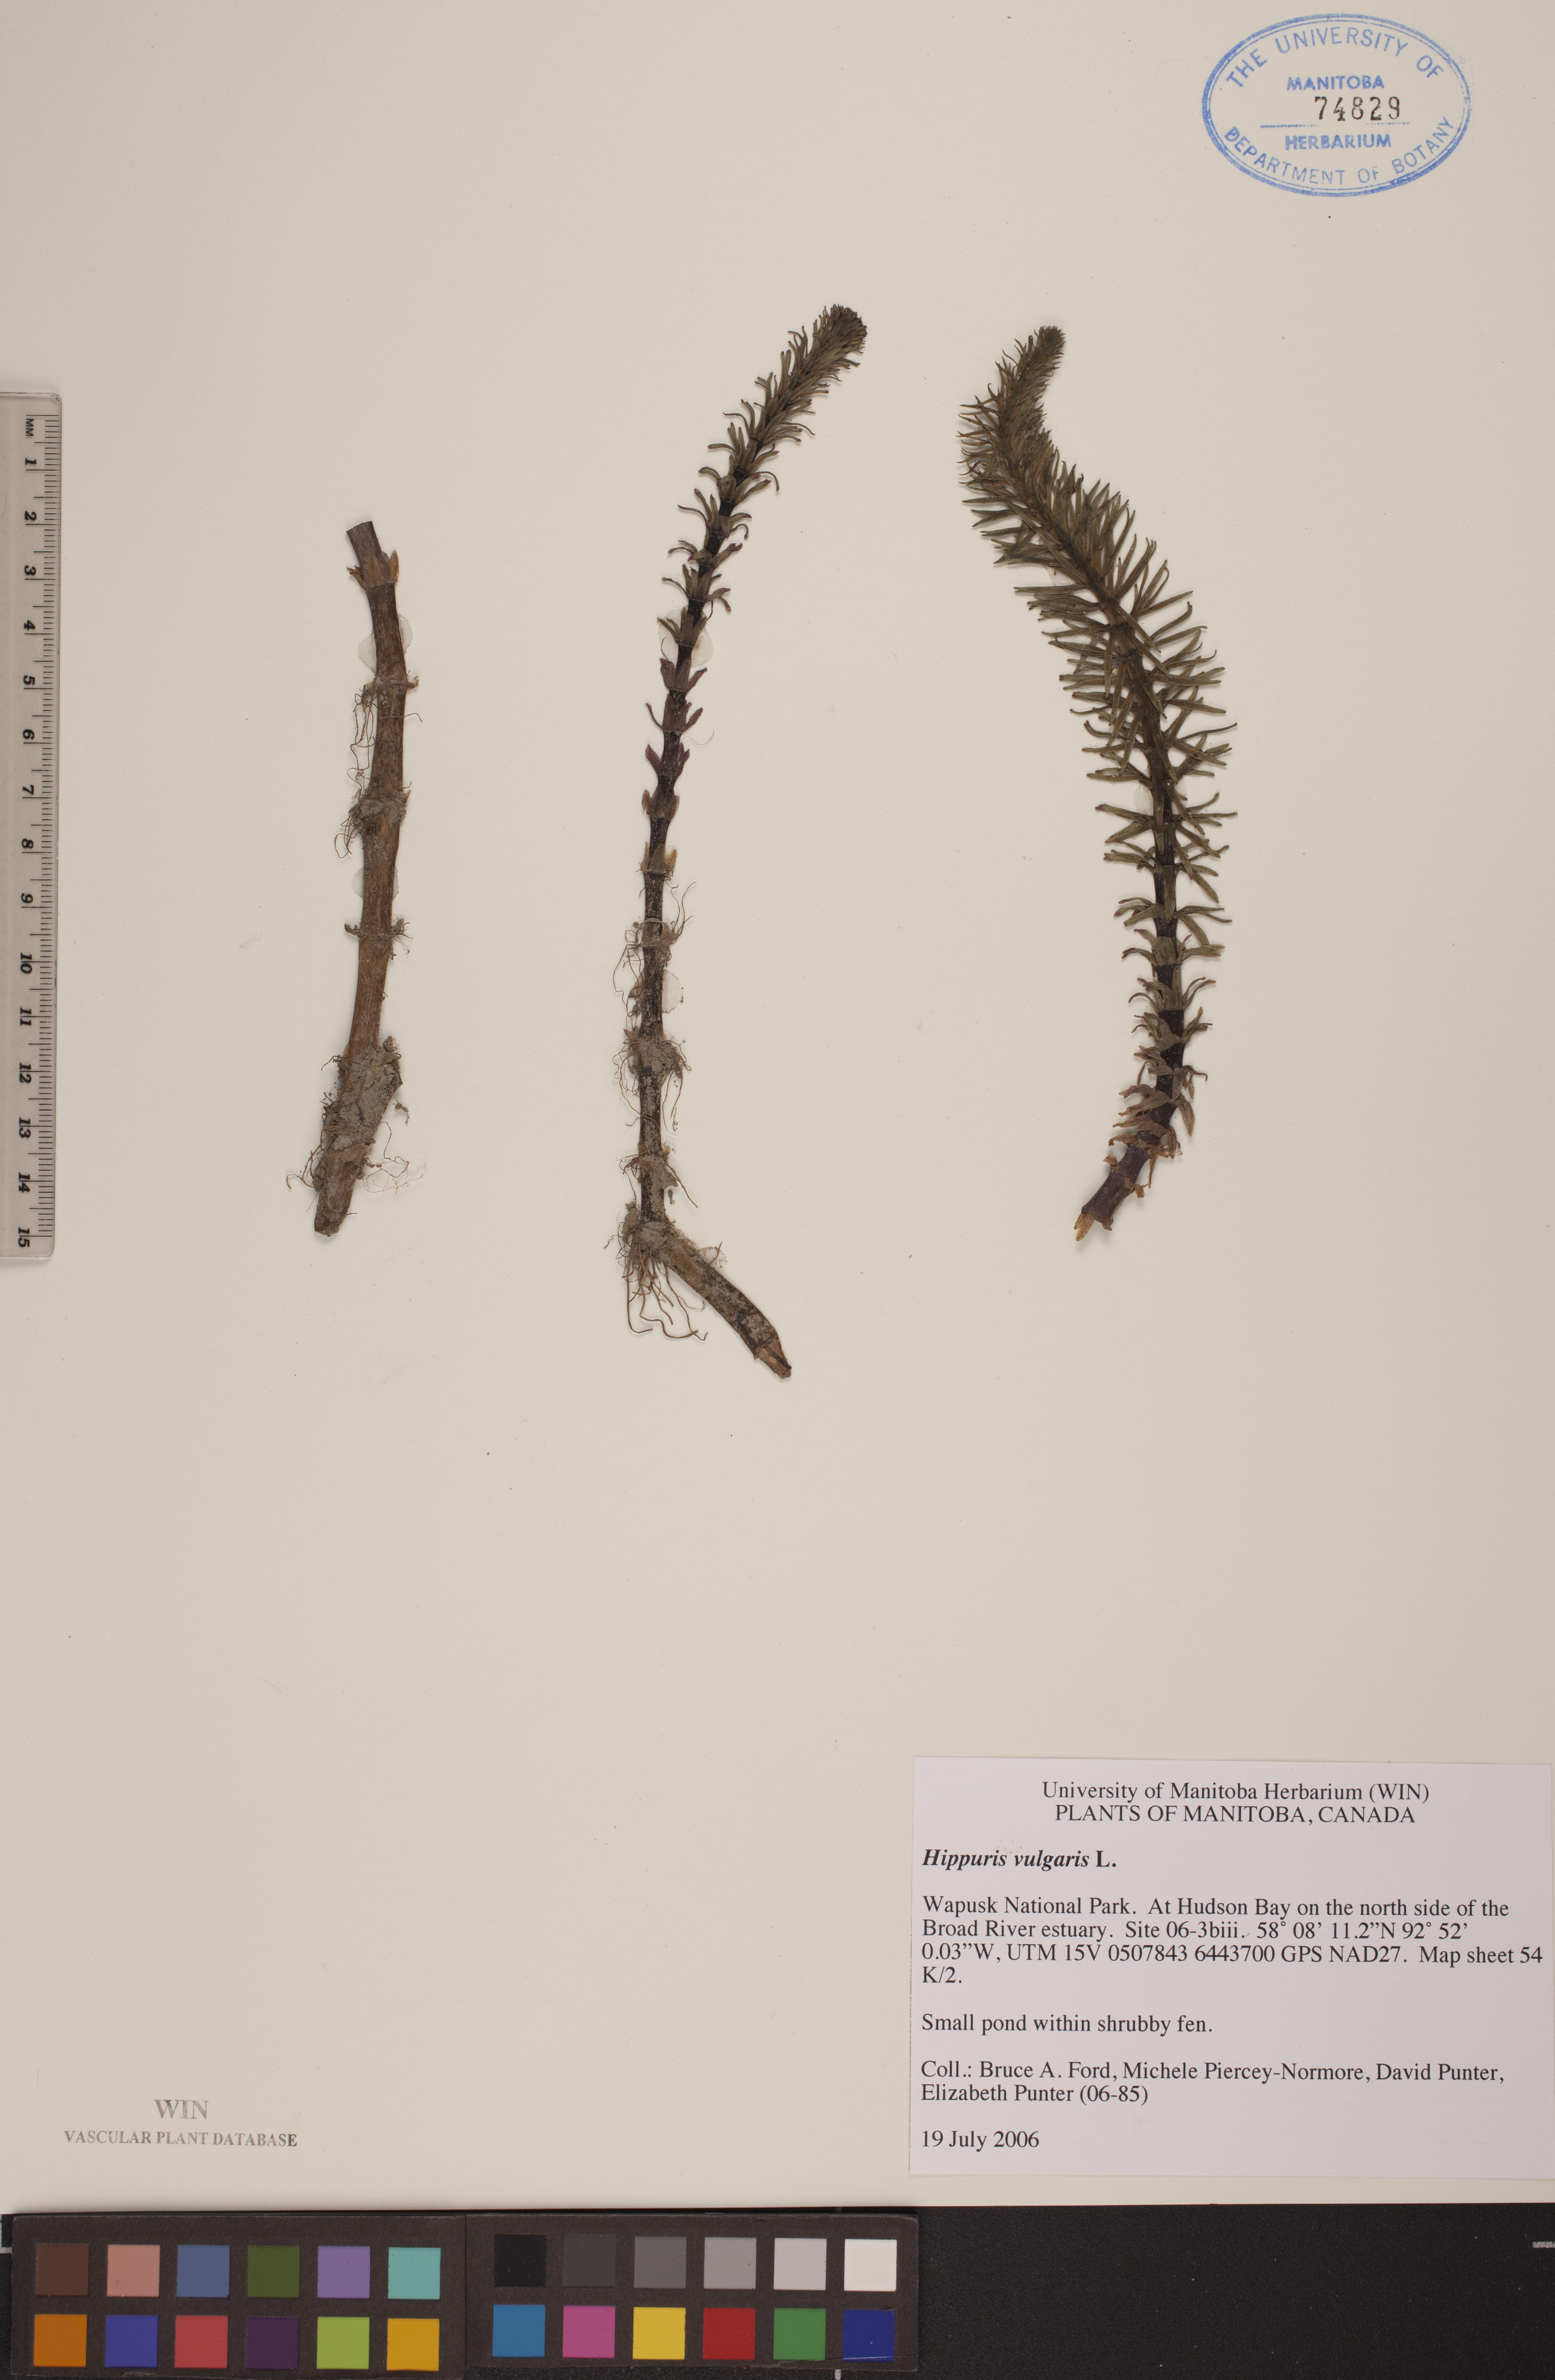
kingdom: Plantae
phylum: Tracheophyta
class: Magnoliopsida
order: Lamiales
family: Plantaginaceae
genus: Hippuris
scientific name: Hippuris vulgaris
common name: Mare's-tail
